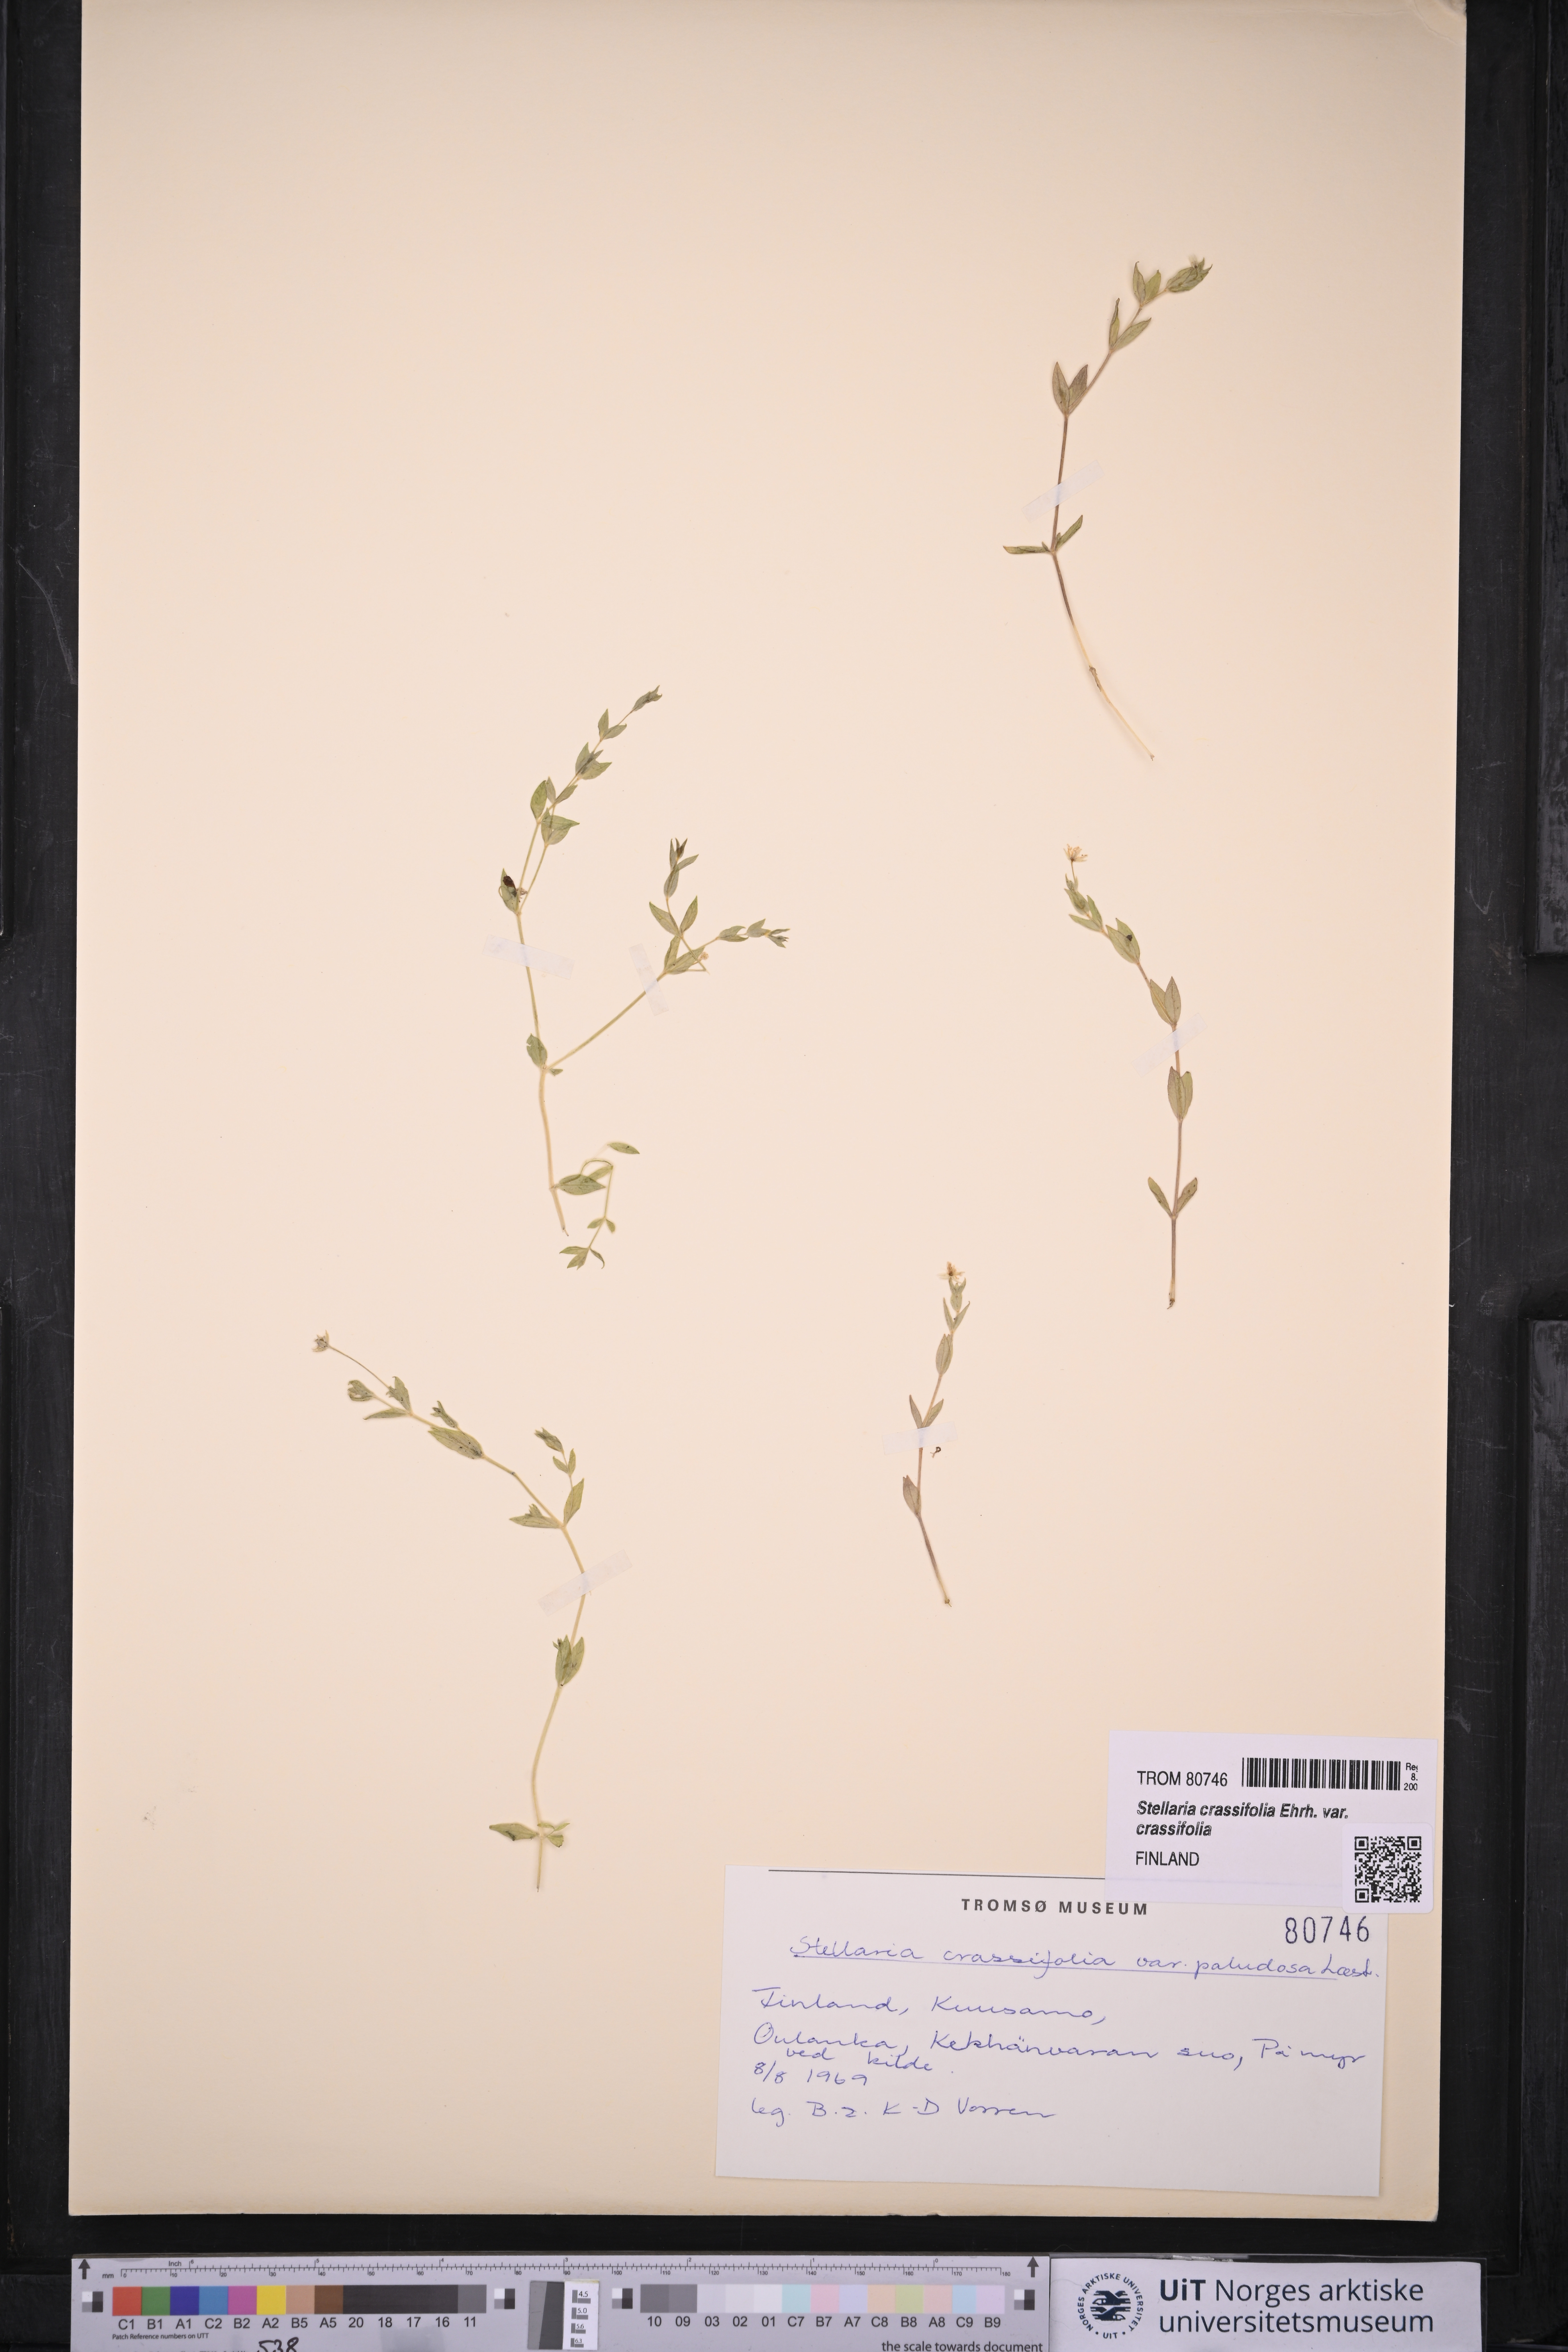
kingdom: Plantae
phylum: Tracheophyta
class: Magnoliopsida
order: Caryophyllales
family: Caryophyllaceae
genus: Stellaria
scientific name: Stellaria crassifolia
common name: Fleshy starwort
